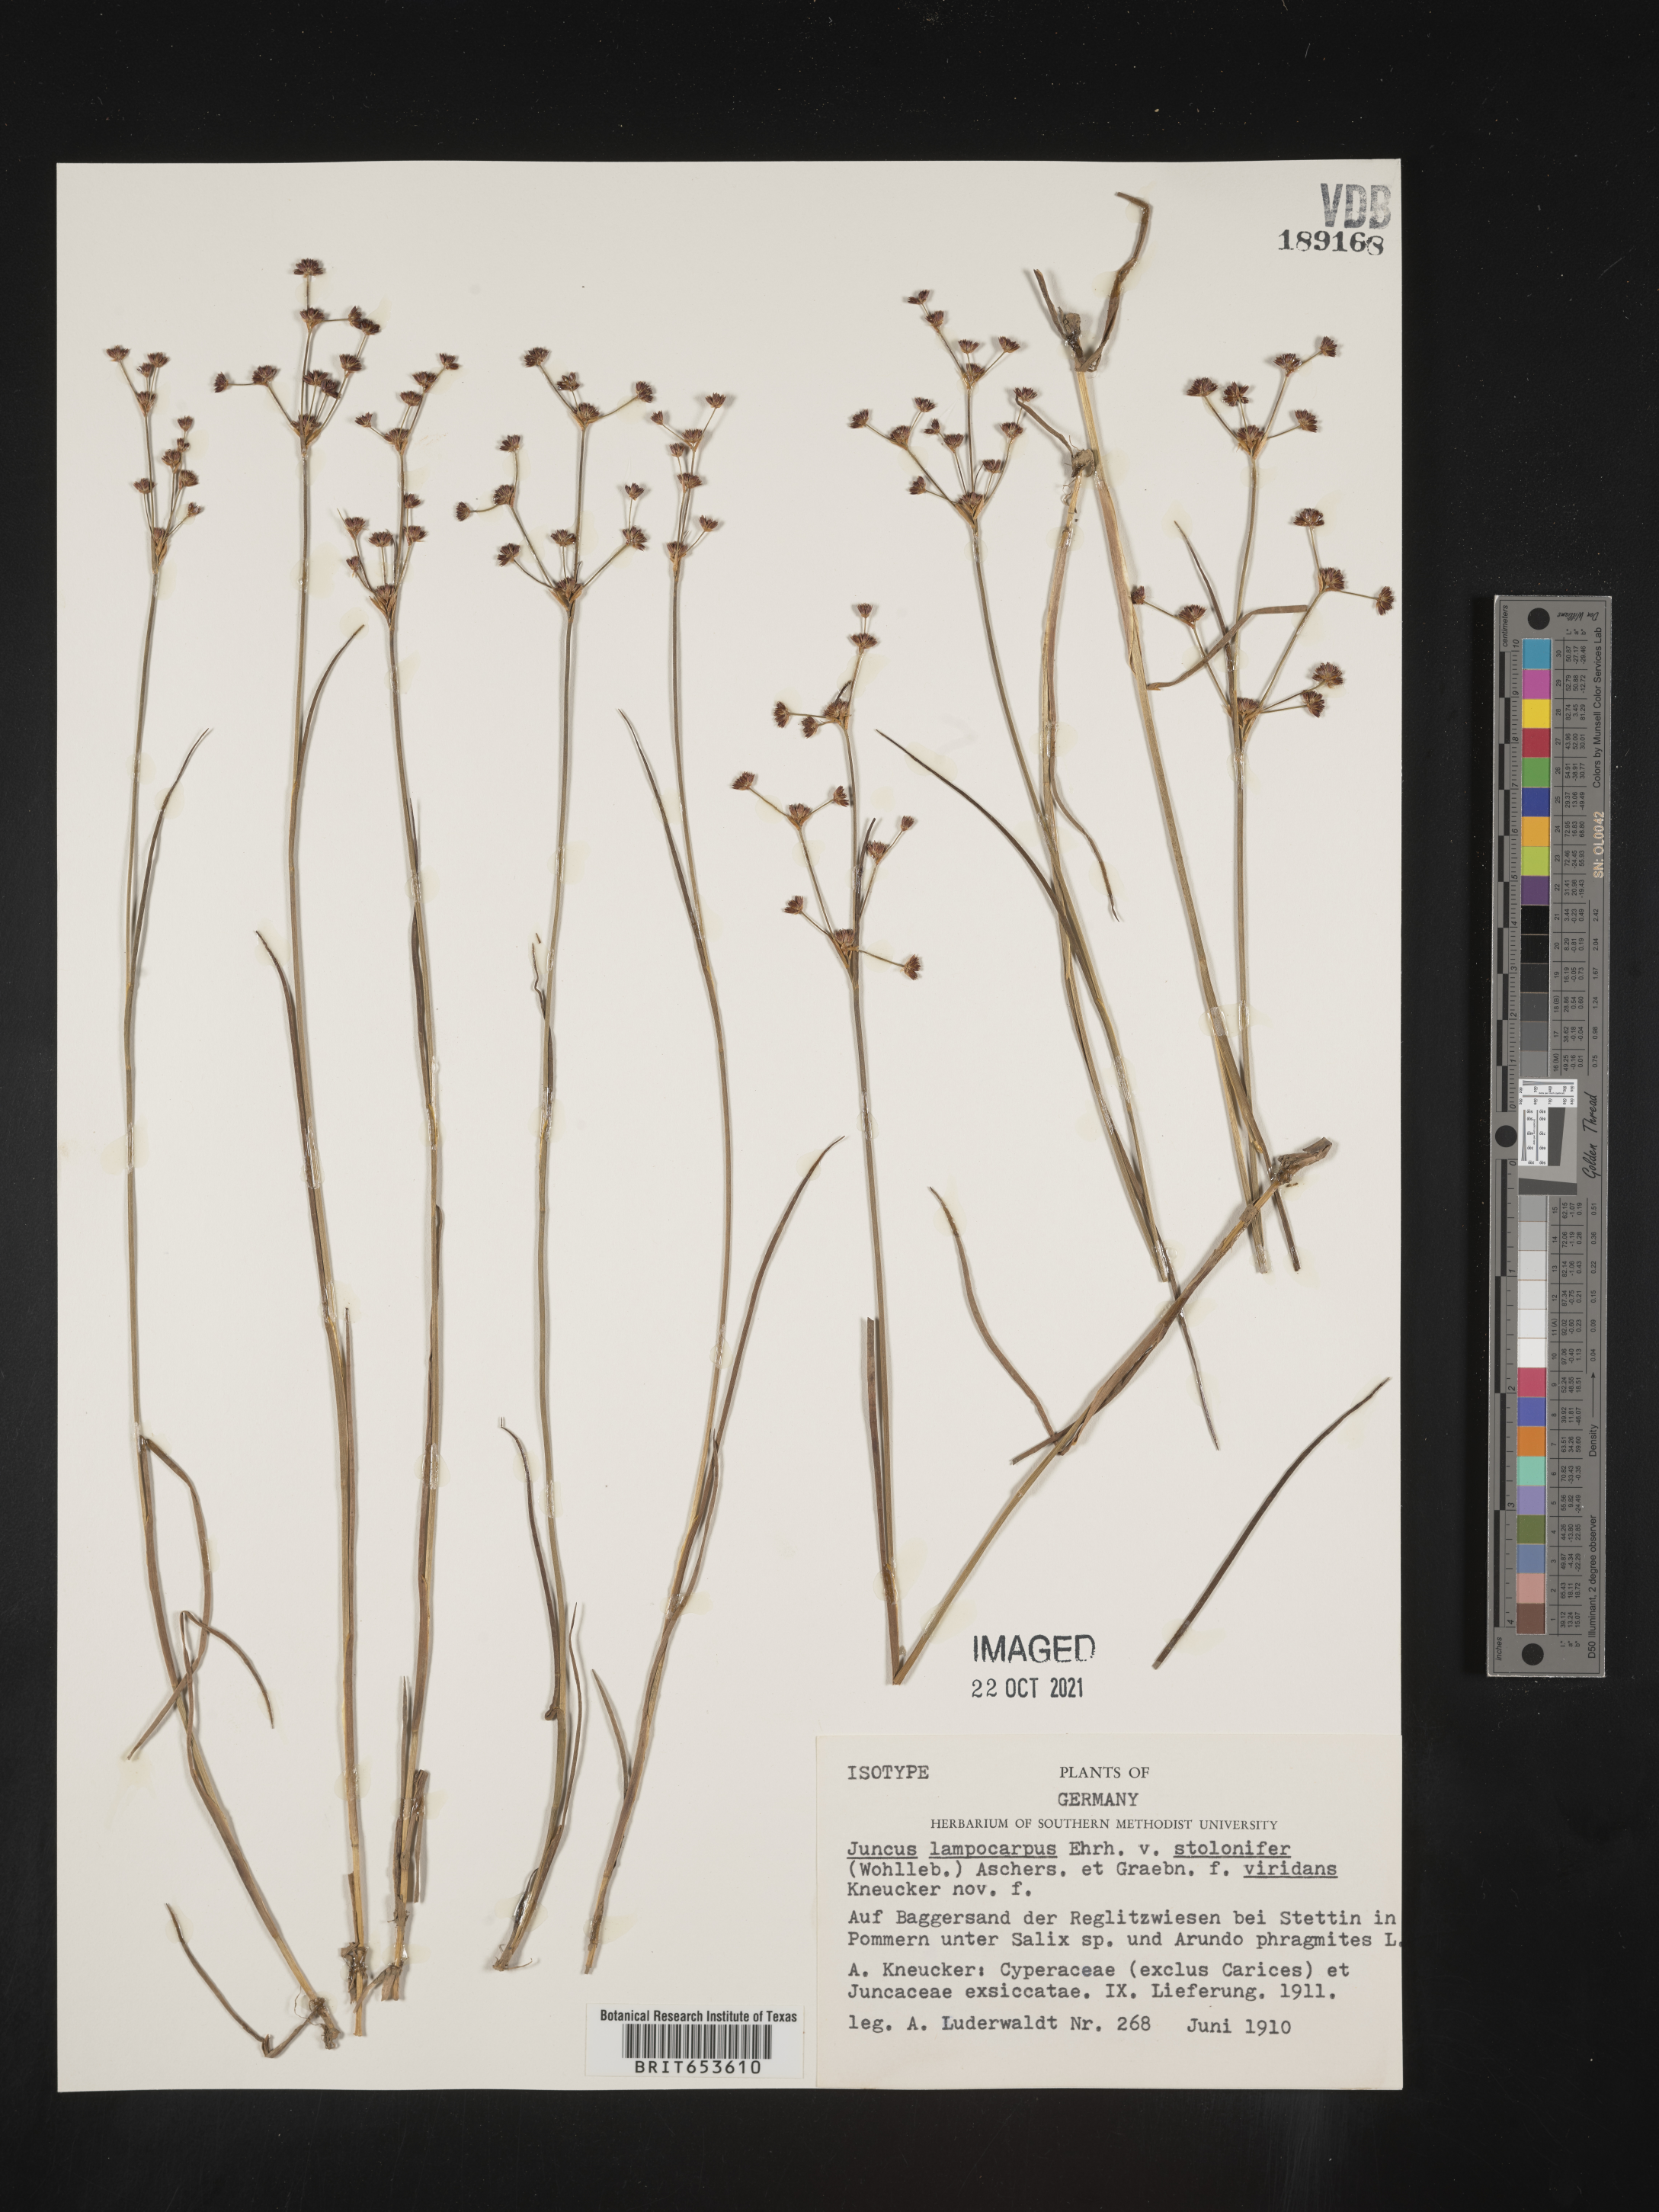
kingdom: Plantae
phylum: Tracheophyta
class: Liliopsida
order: Poales
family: Juncaceae
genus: Juncus
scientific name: Juncus
